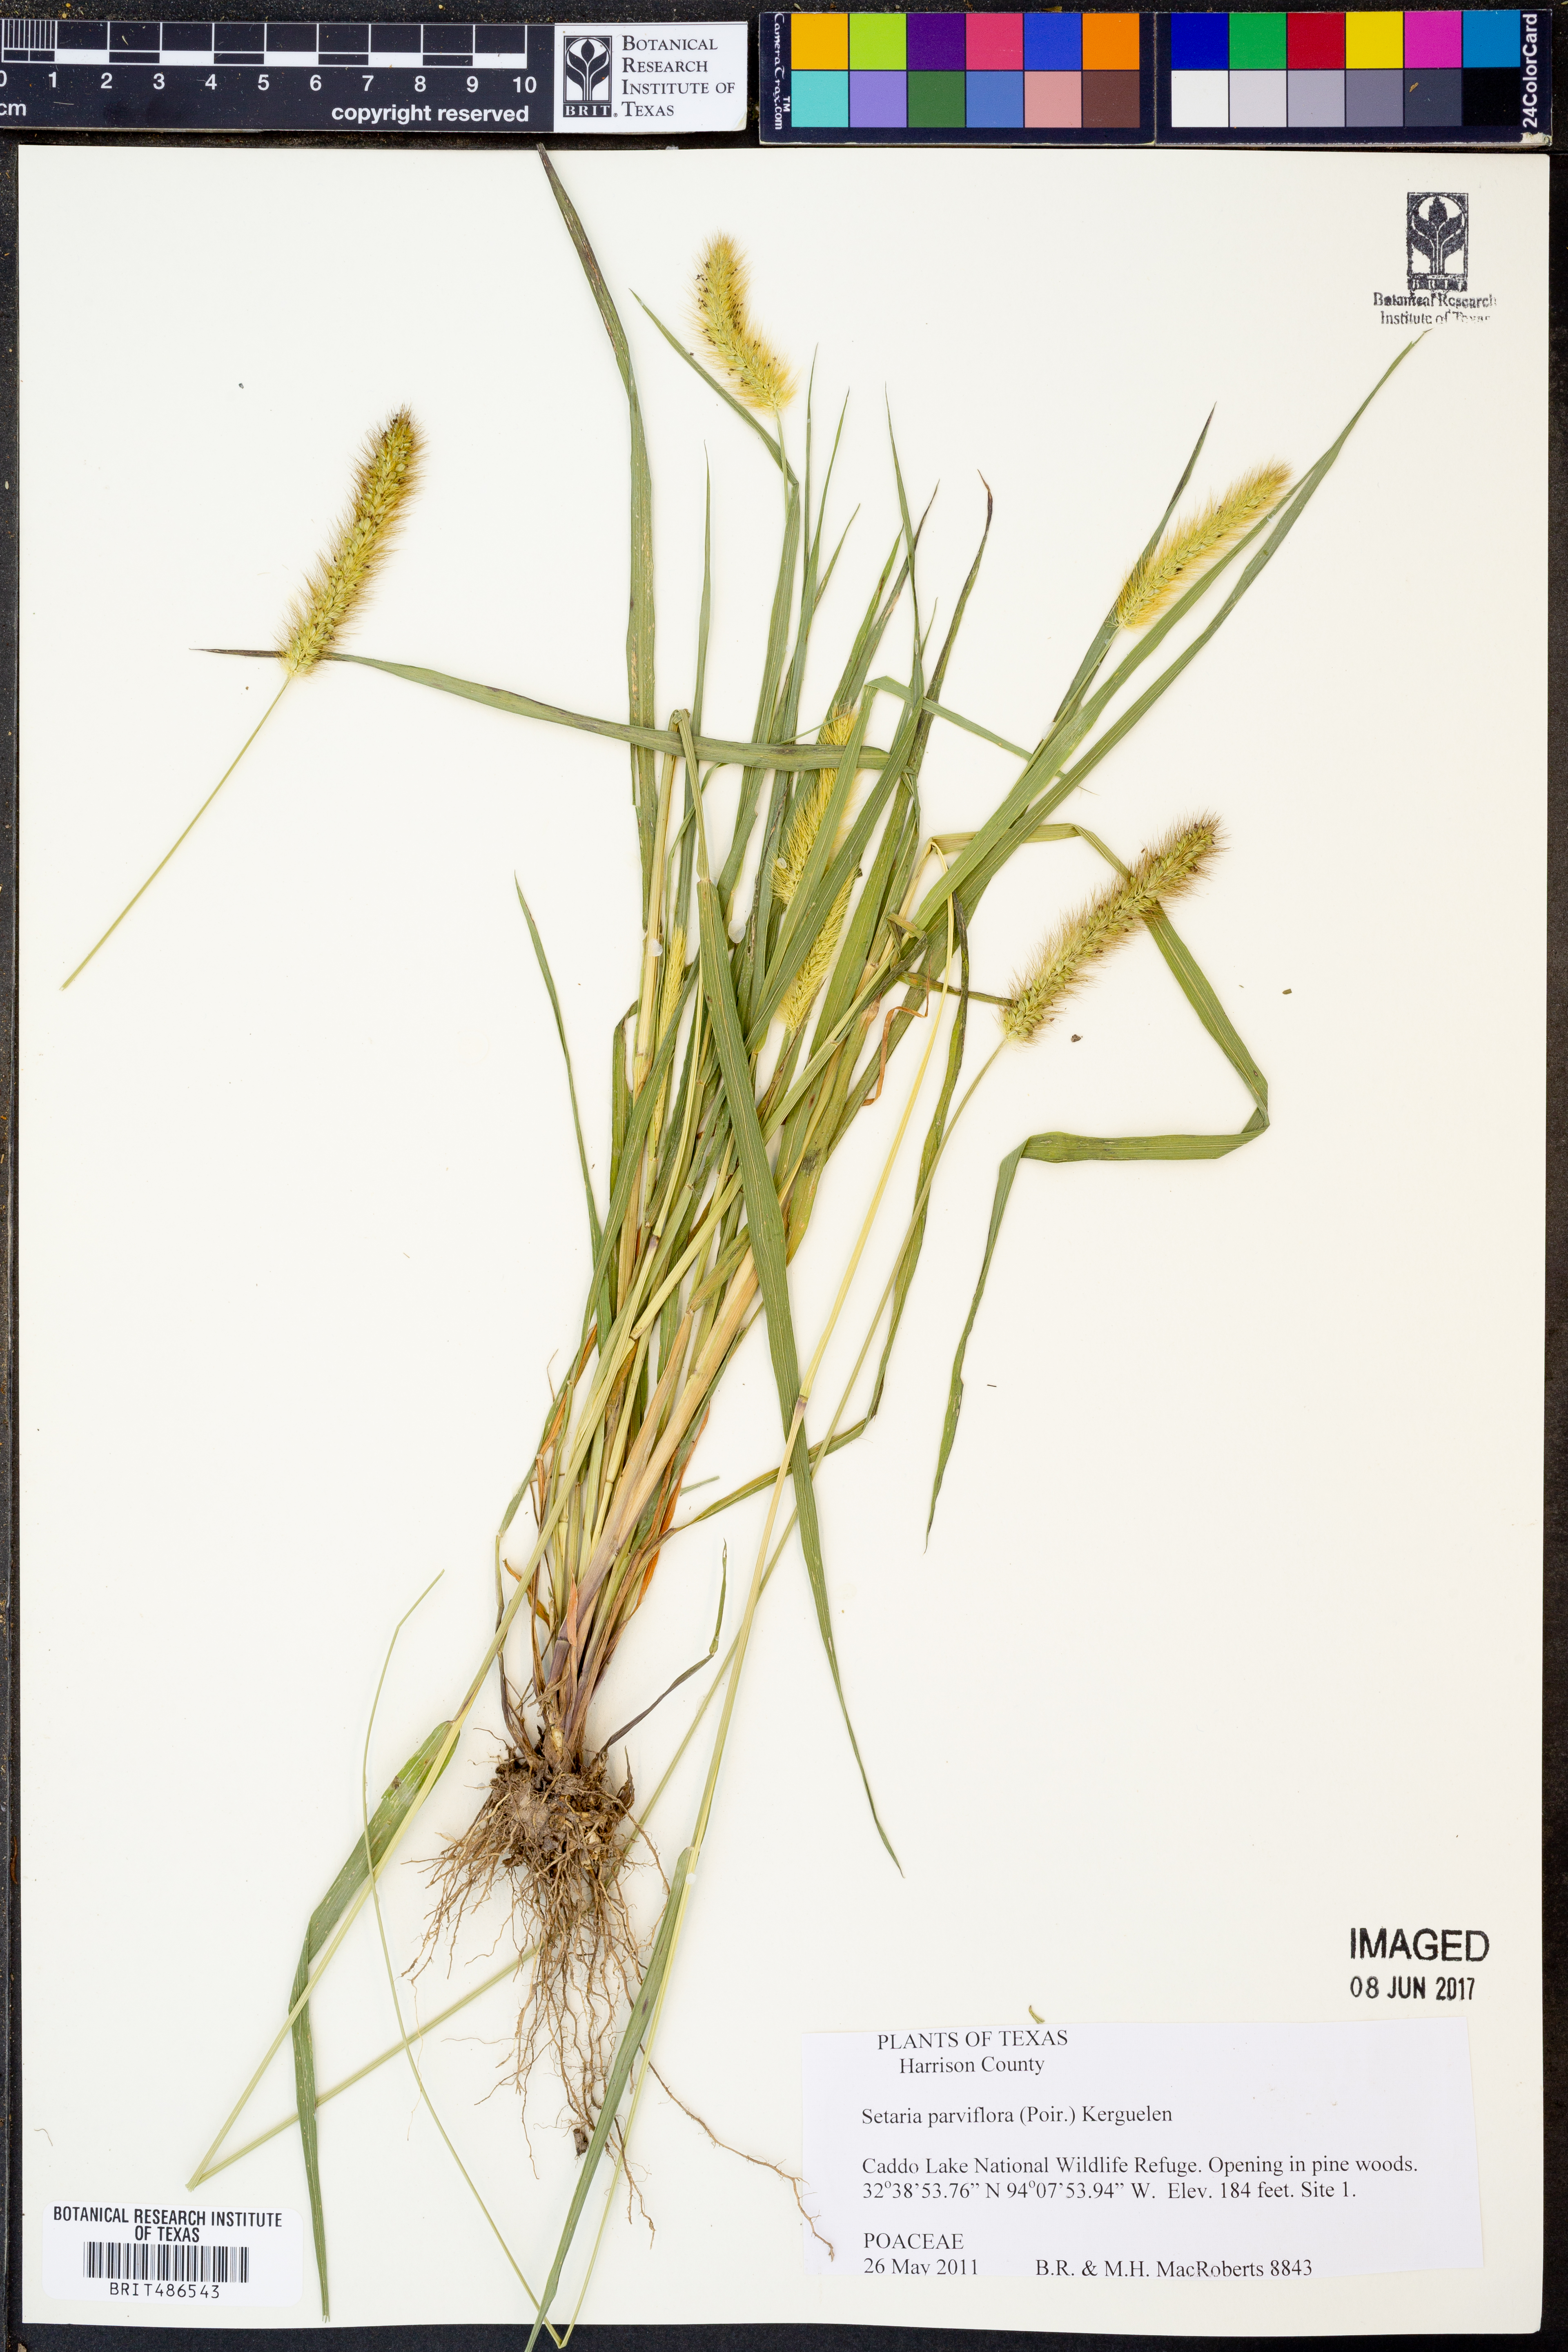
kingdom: Plantae
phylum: Tracheophyta
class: Liliopsida
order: Poales
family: Poaceae
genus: Setaria
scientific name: Setaria parviflora
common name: Knotroot bristle-grass
